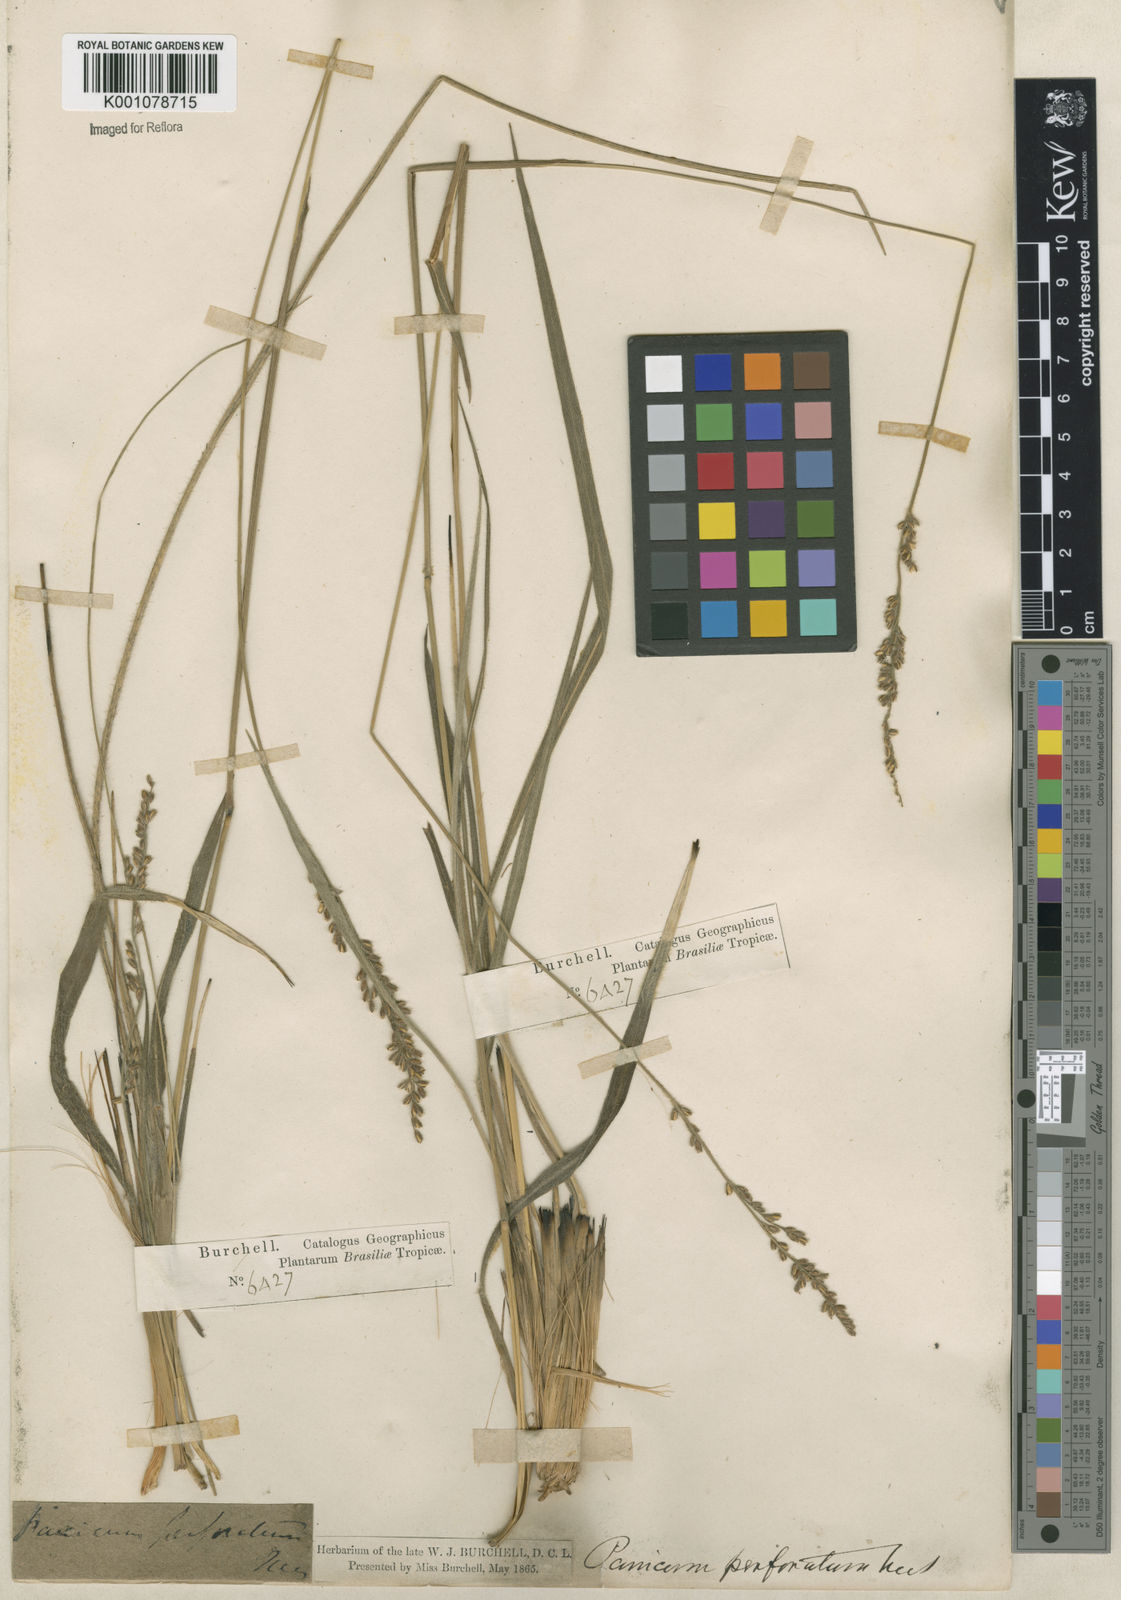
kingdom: Plantae
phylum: Tracheophyta
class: Liliopsida
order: Poales
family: Poaceae
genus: Anthaenantiopsis
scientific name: Anthaenantiopsis perforata
